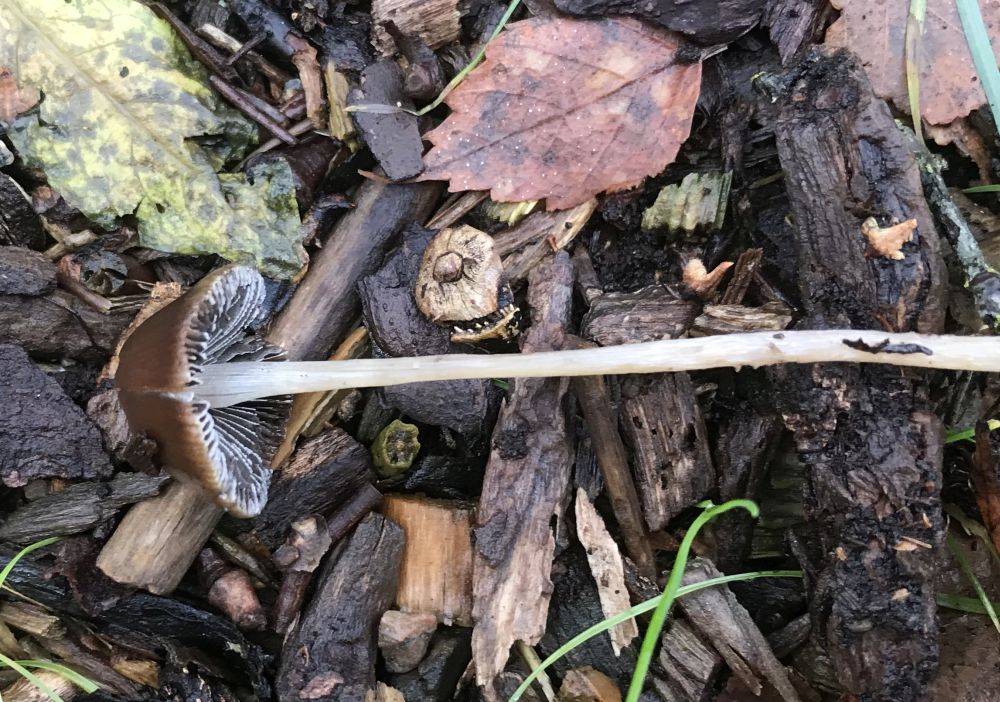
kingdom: Fungi
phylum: Basidiomycota
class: Agaricomycetes
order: Agaricales
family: Psathyrellaceae
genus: Psathyrella
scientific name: Psathyrella
